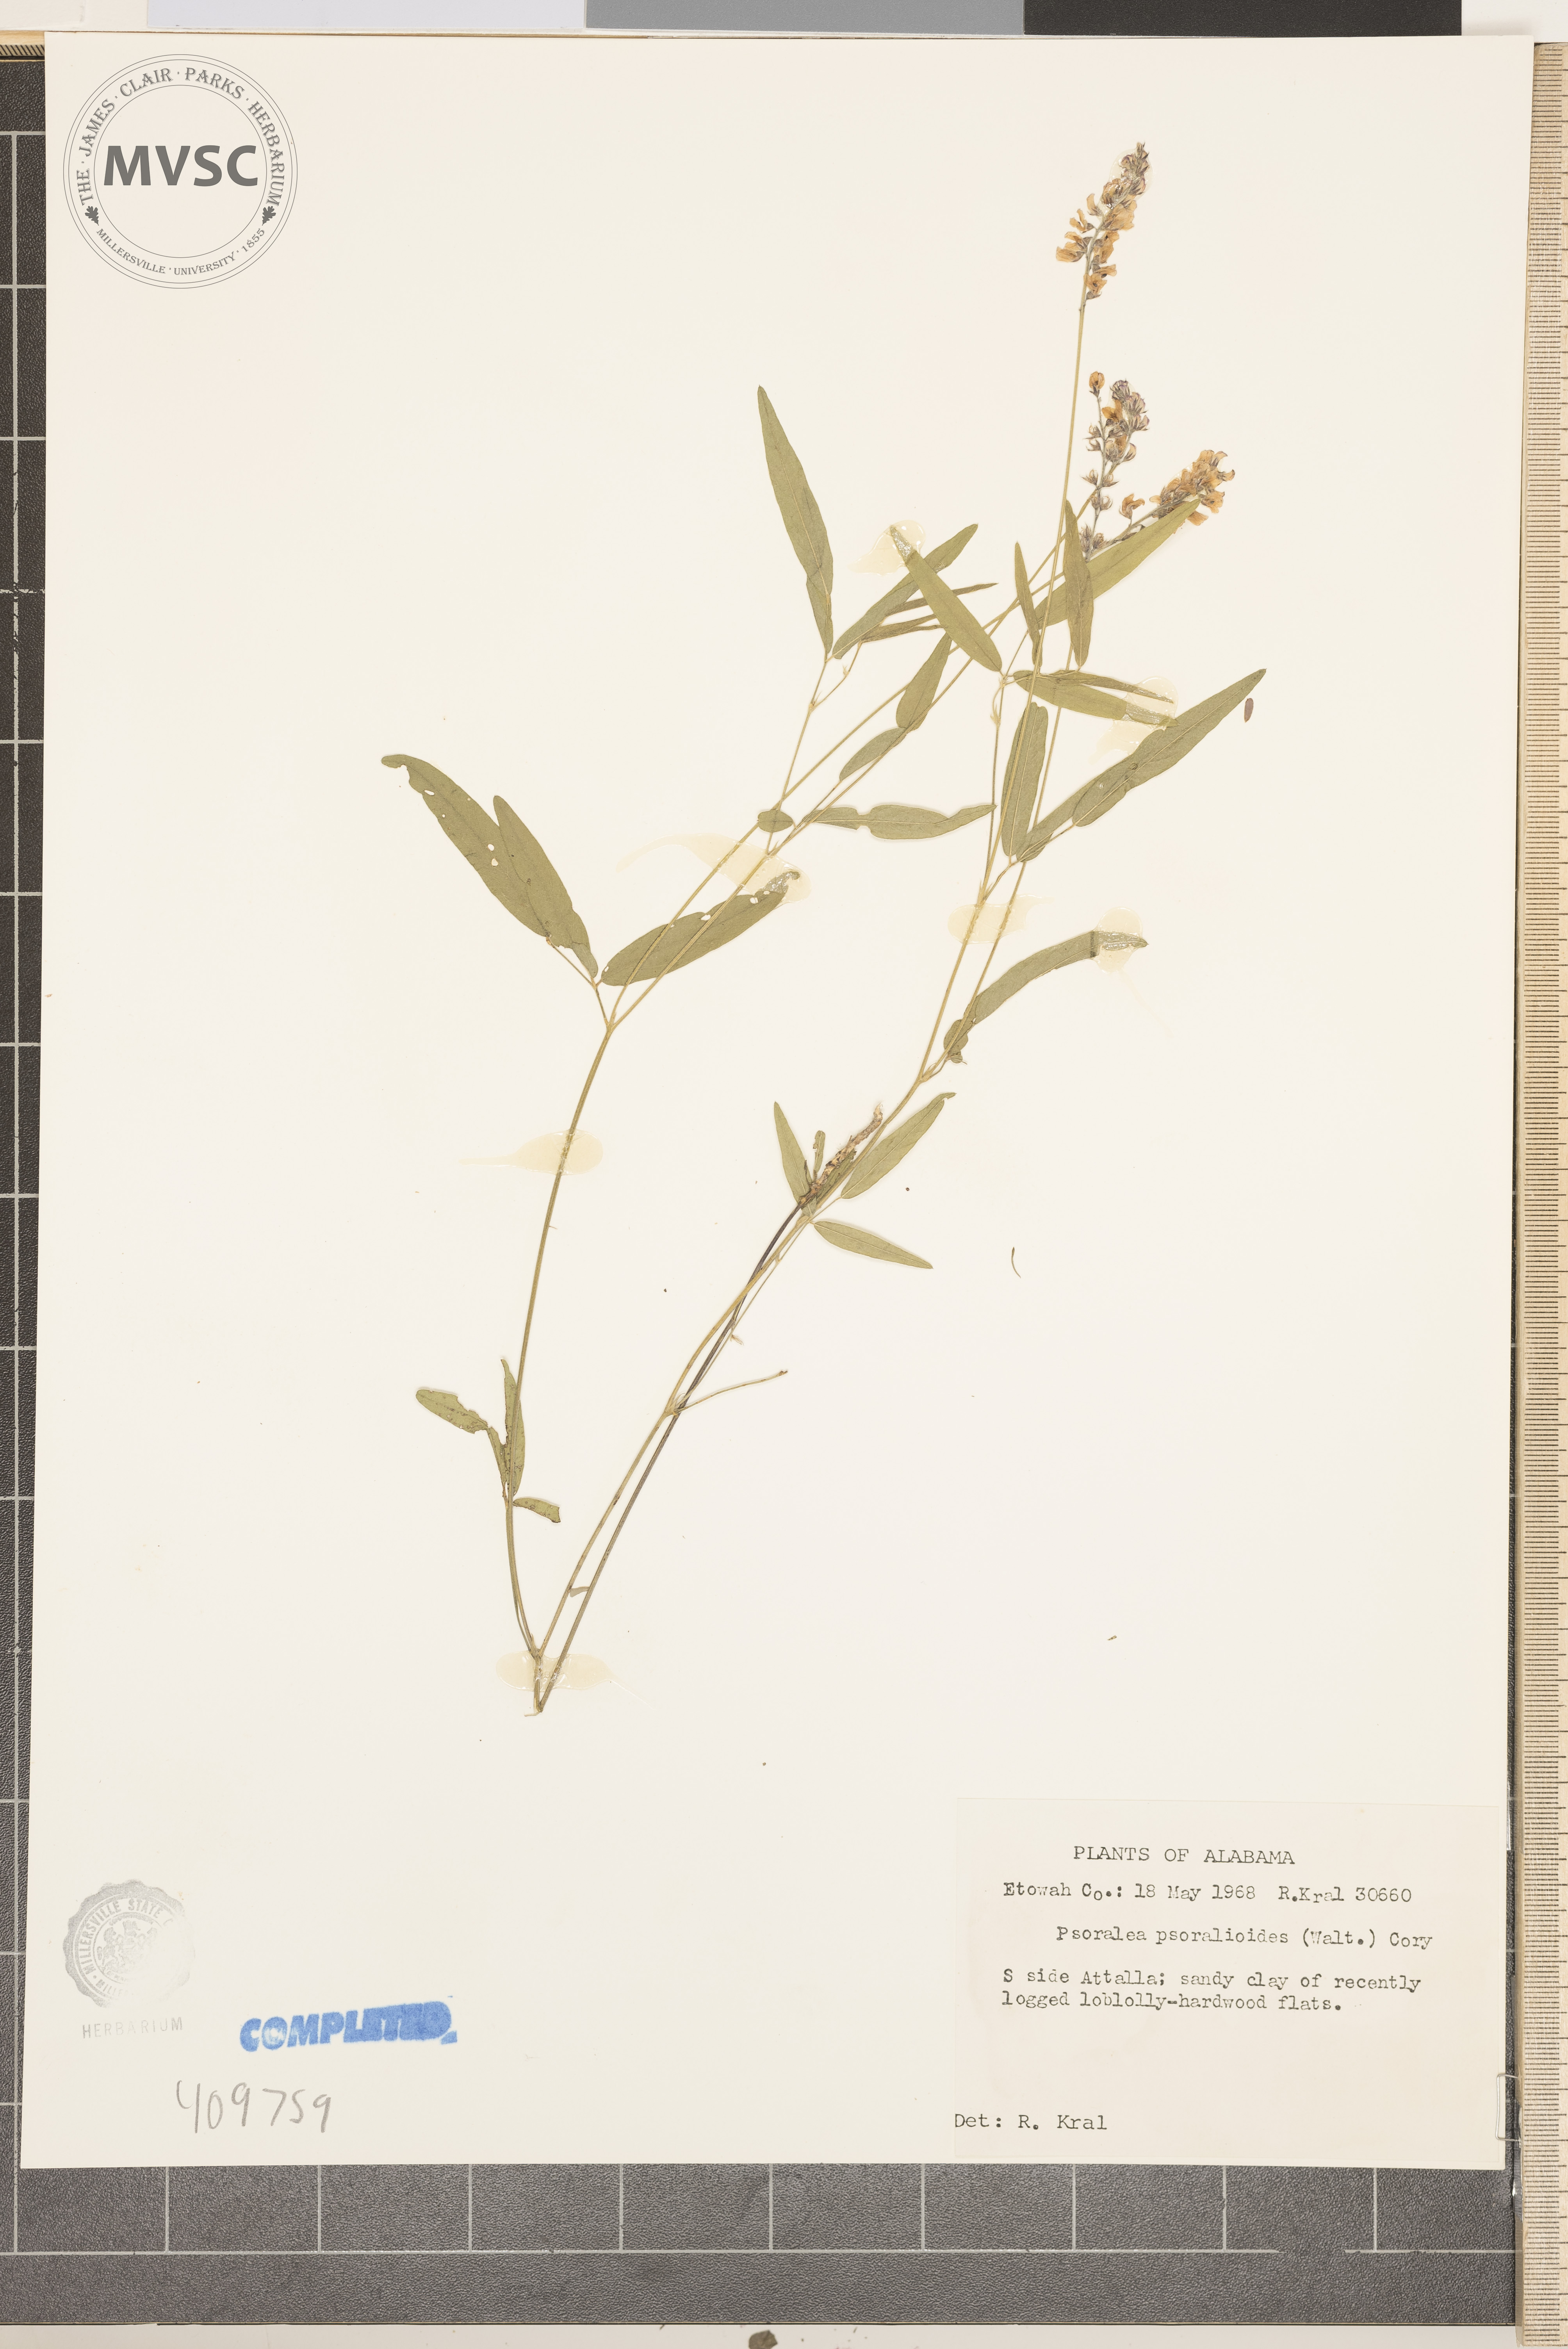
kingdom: Plantae
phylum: Tracheophyta
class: Magnoliopsida
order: Fabales
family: Fabaceae
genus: Orbexilum
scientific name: Orbexilum psoralioides
